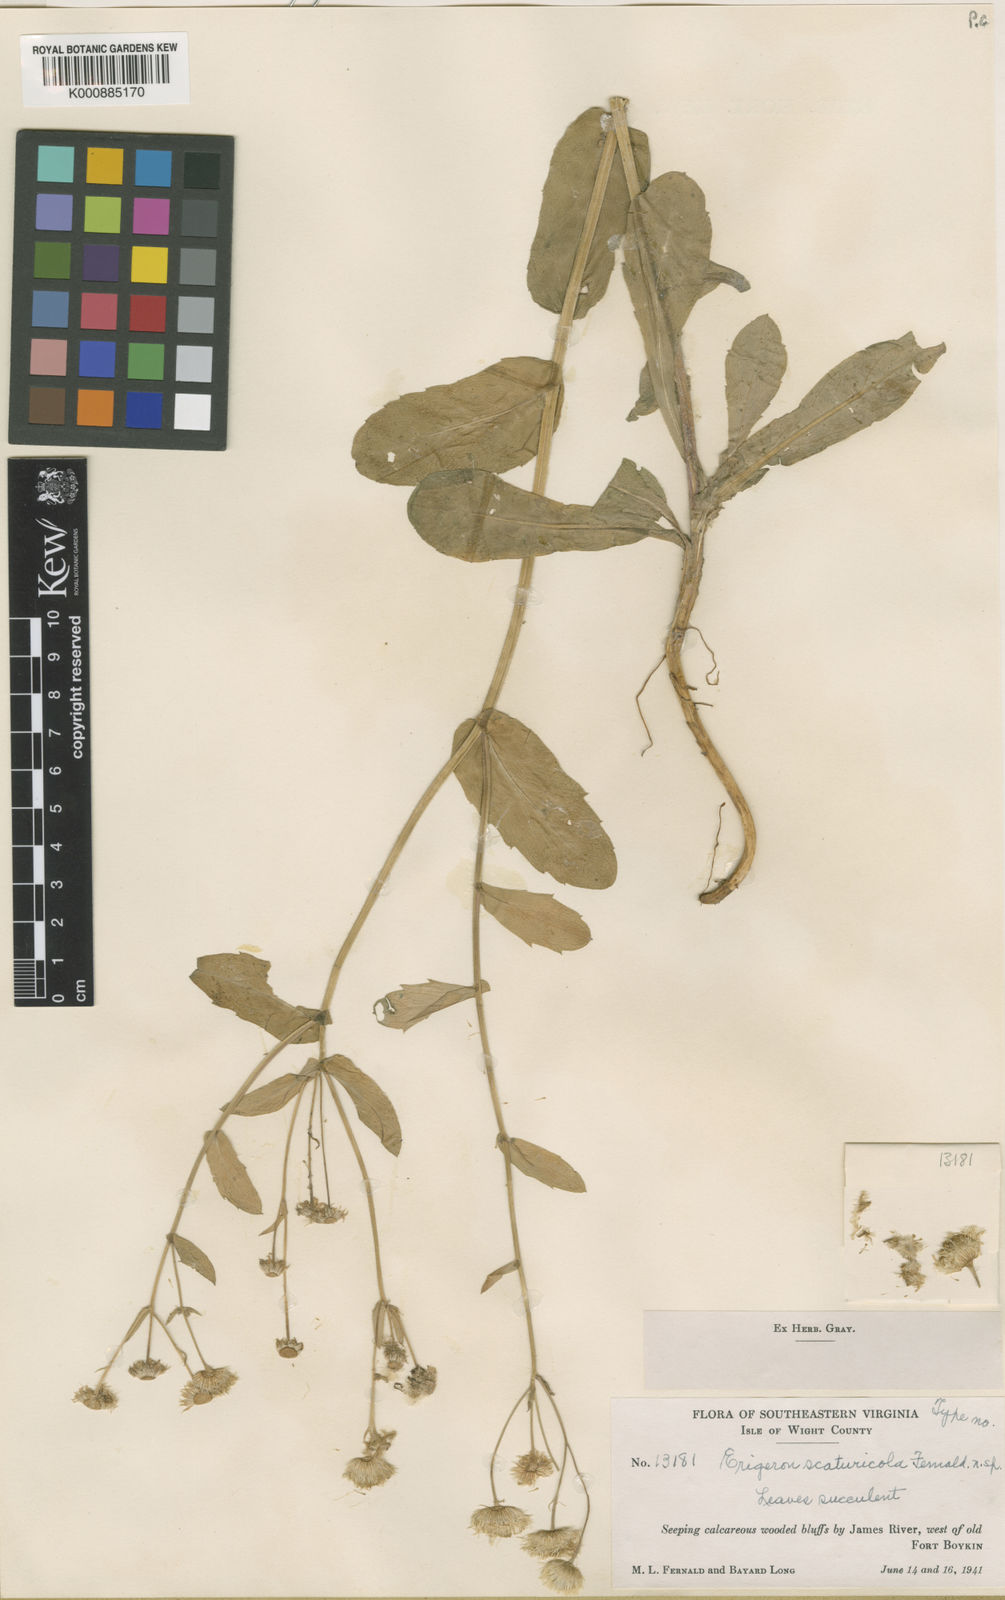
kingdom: Plantae
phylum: Tracheophyta
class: Magnoliopsida
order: Asterales
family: Asteraceae
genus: Erigeron
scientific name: Erigeron
